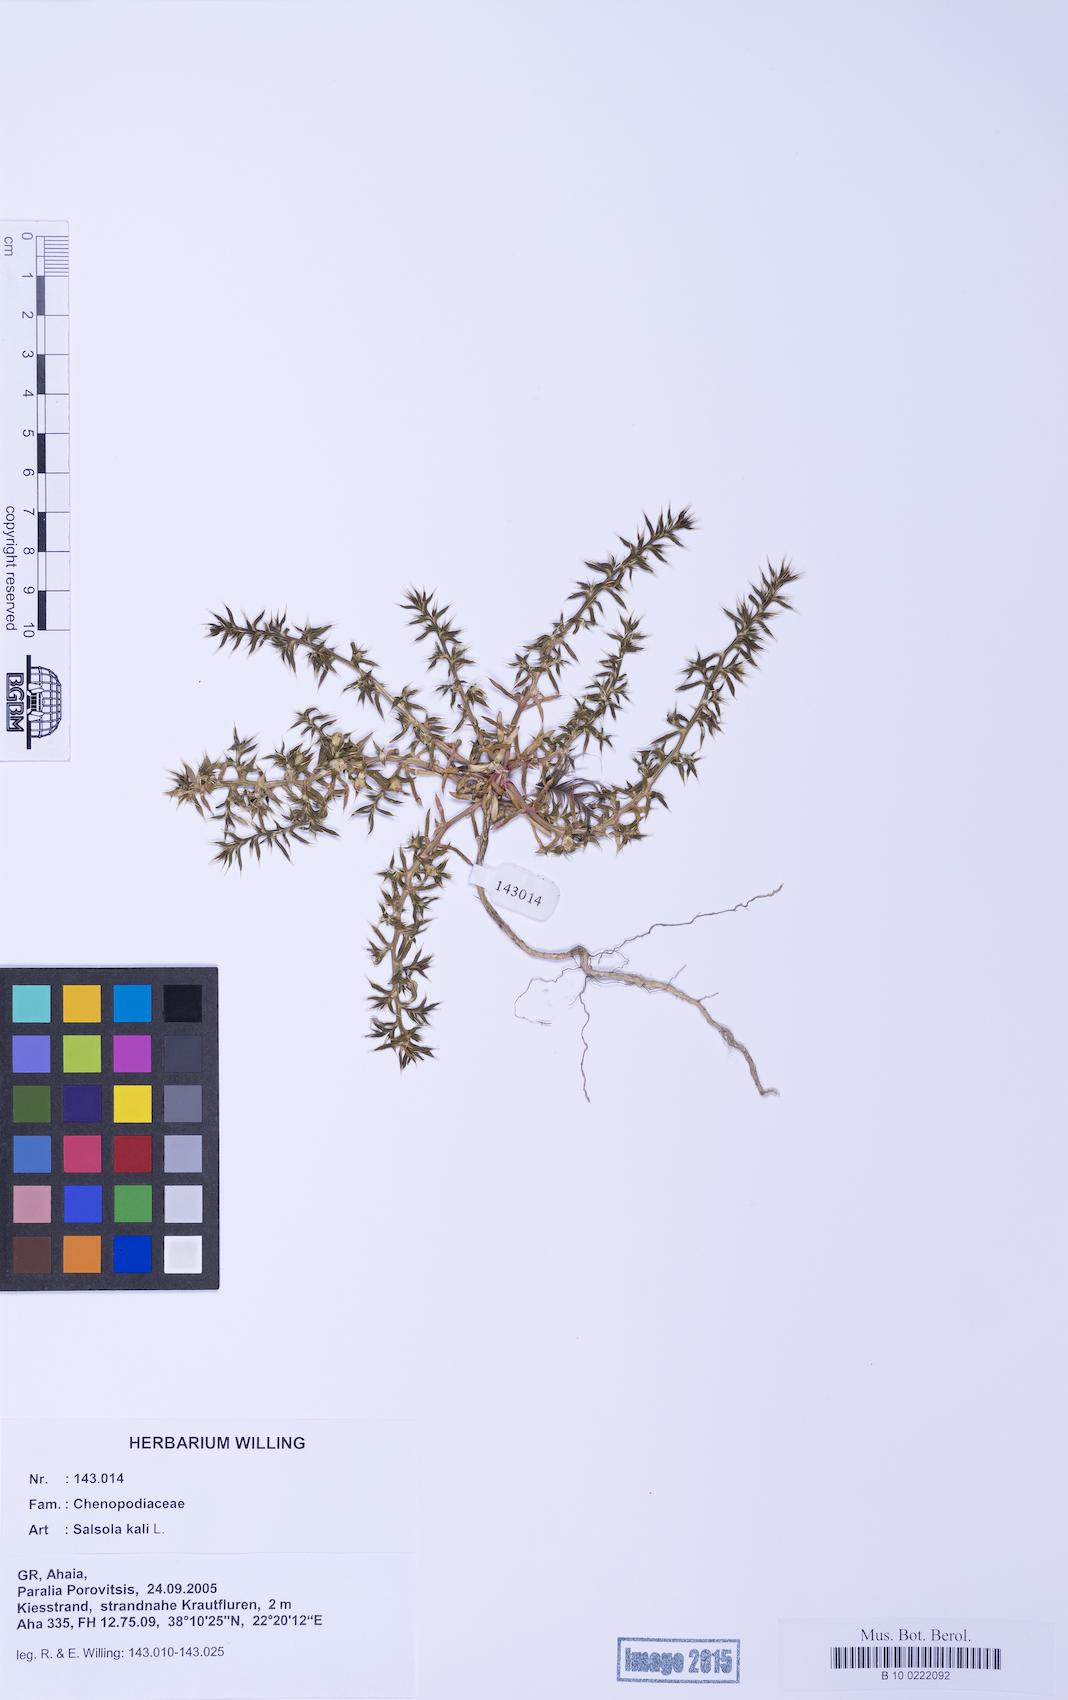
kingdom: Plantae
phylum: Tracheophyta
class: Magnoliopsida
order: Caryophyllales
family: Amaranthaceae
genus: Salsola
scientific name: Salsola kali
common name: Saltwort
